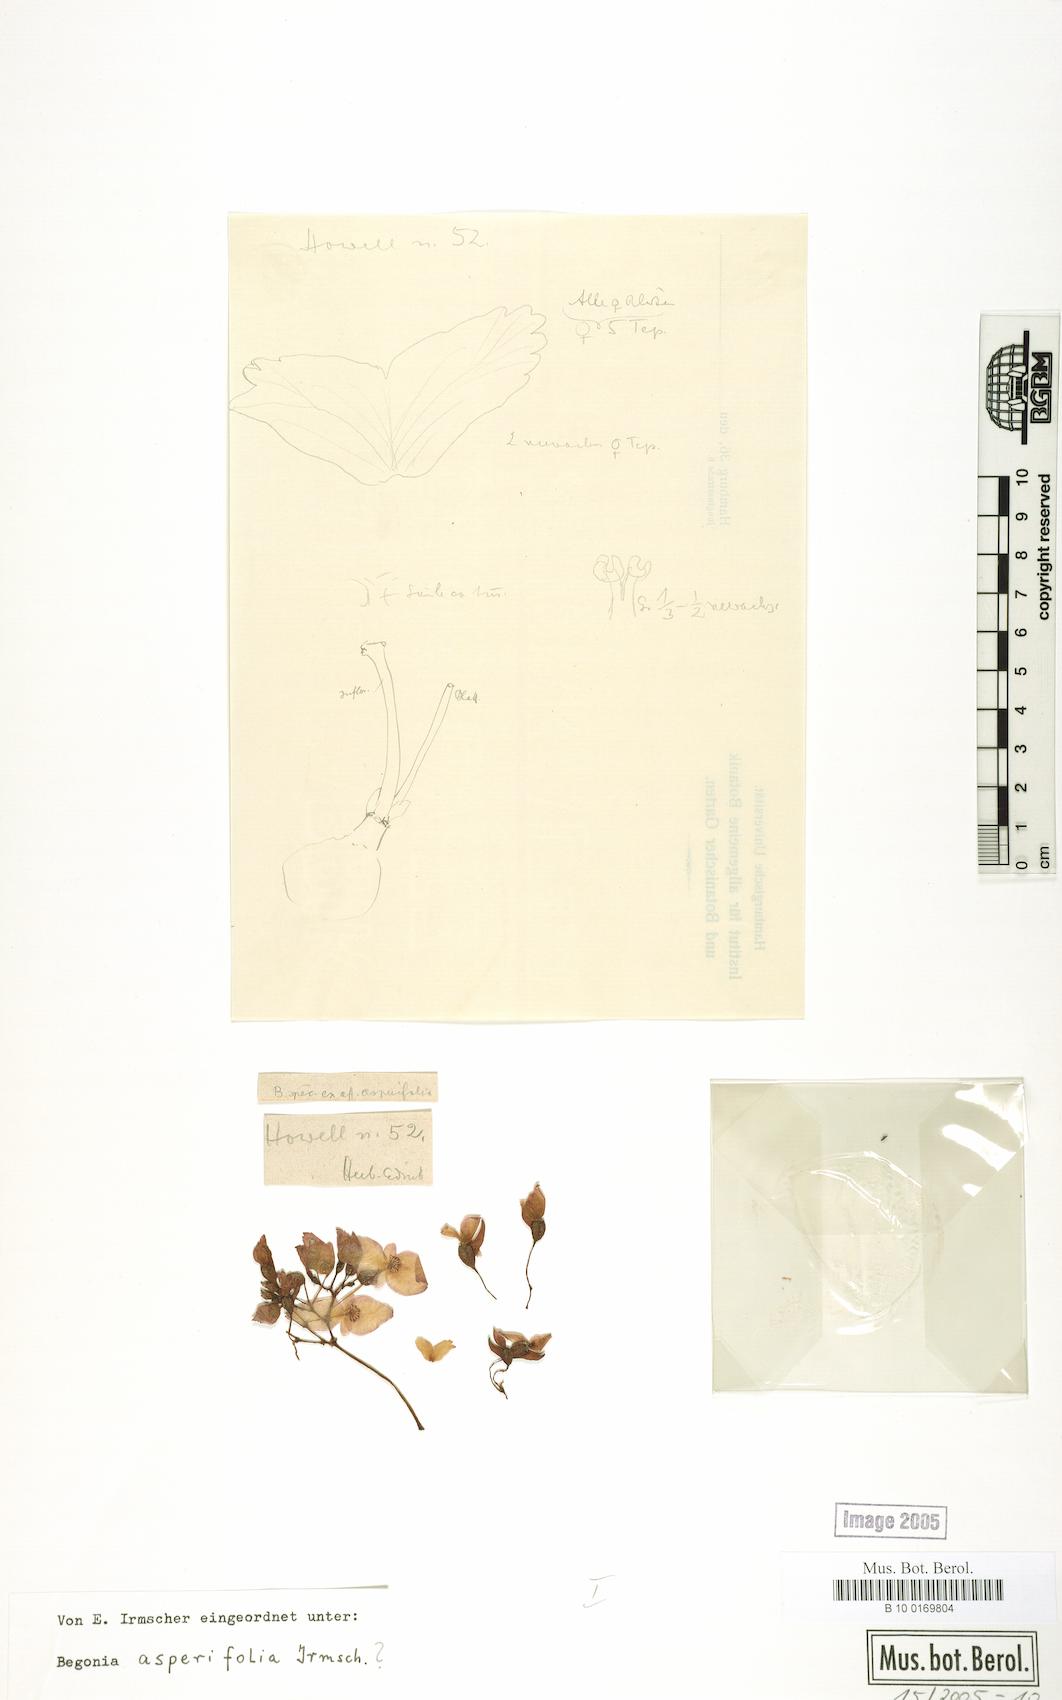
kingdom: Plantae
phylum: Tracheophyta
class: Magnoliopsida
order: Cucurbitales
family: Begoniaceae
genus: Begonia
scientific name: Begonia asperifolia
